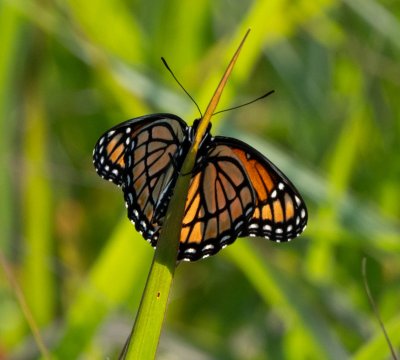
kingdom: Animalia
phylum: Arthropoda
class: Insecta
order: Lepidoptera
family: Nymphalidae
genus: Limenitis
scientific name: Limenitis archippus
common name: Viceroy
